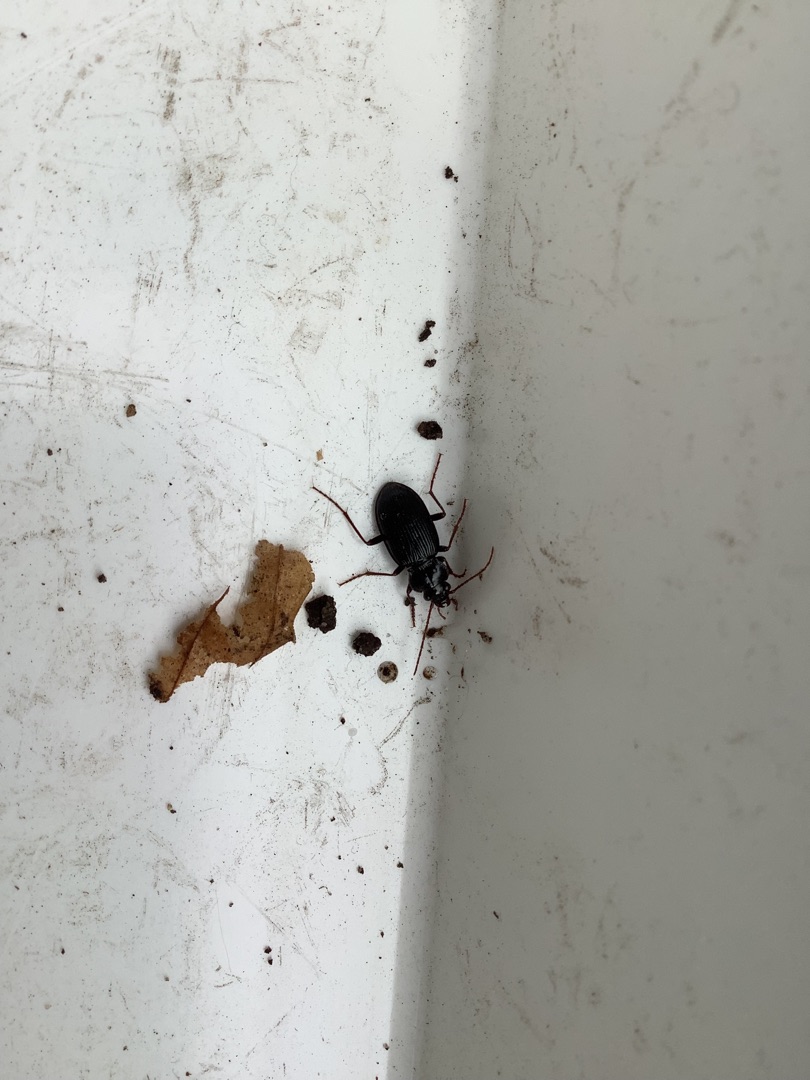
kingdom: Animalia
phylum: Arthropoda
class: Insecta
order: Coleoptera
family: Carabidae
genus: Nebria
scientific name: Nebria brevicollis
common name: Skovfladløber
